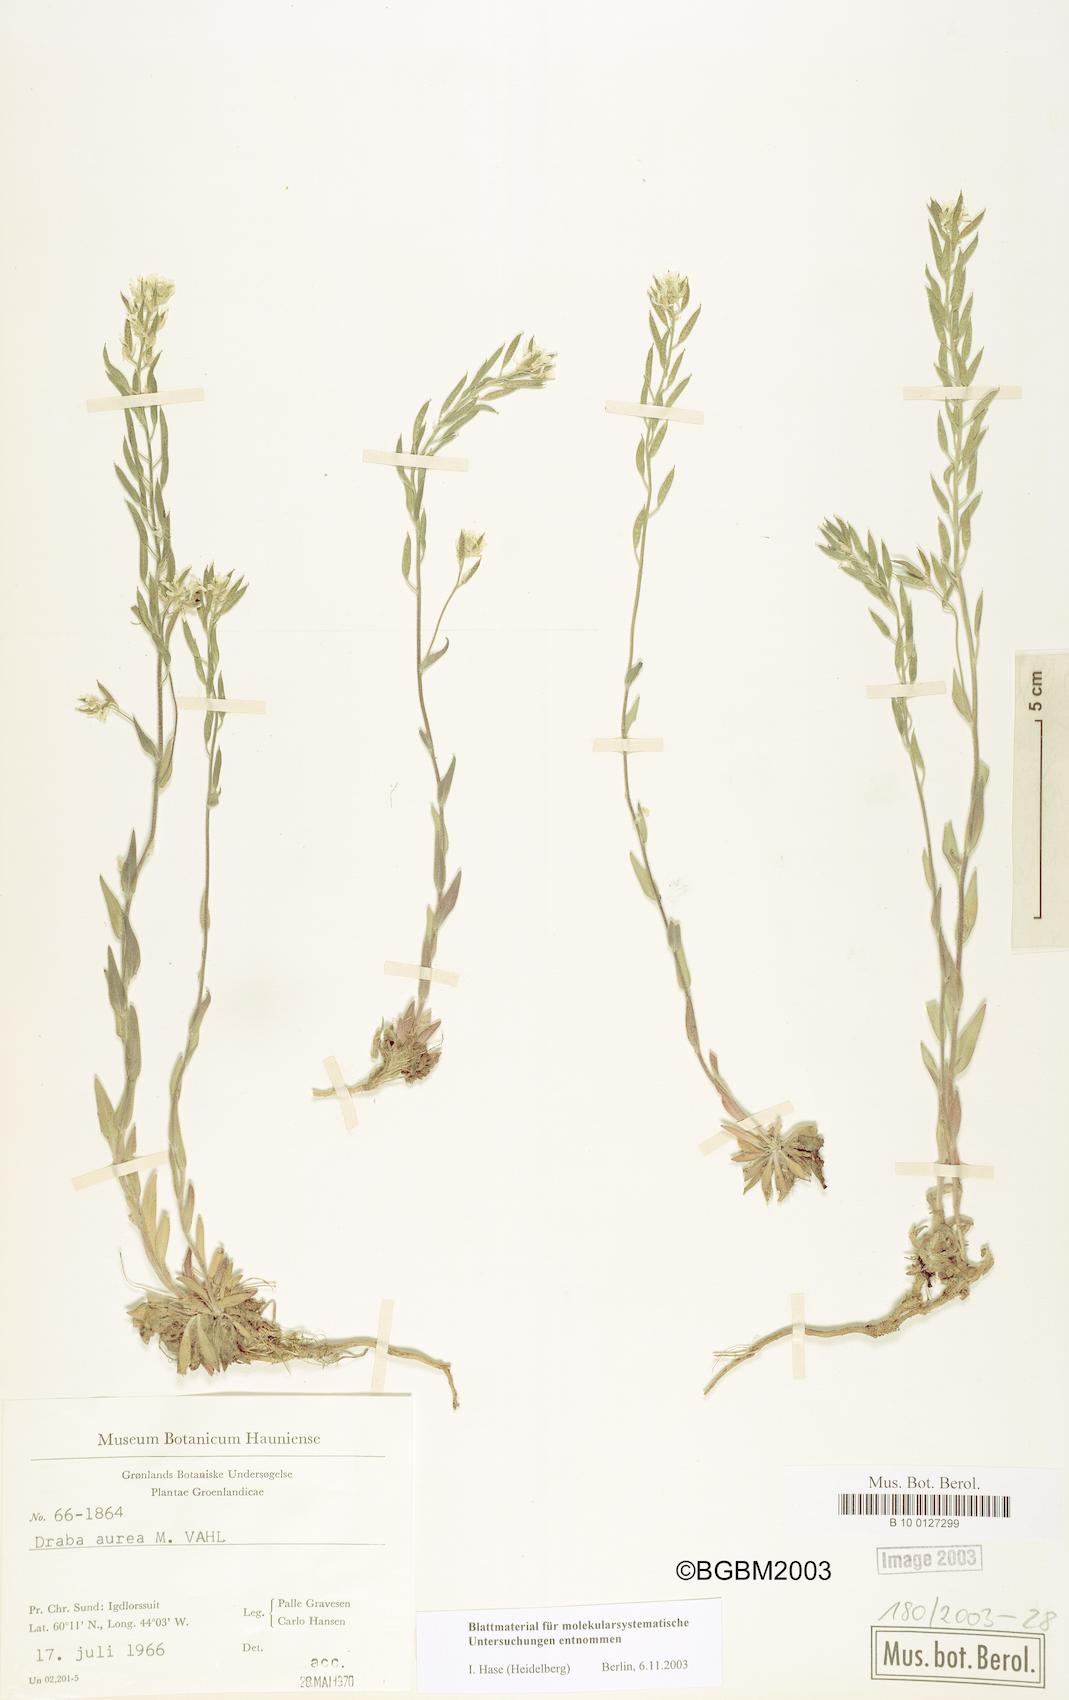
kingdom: Plantae
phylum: Tracheophyta
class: Magnoliopsida
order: Brassicales
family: Brassicaceae
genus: Draba
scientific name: Draba aurea
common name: Golden draba
